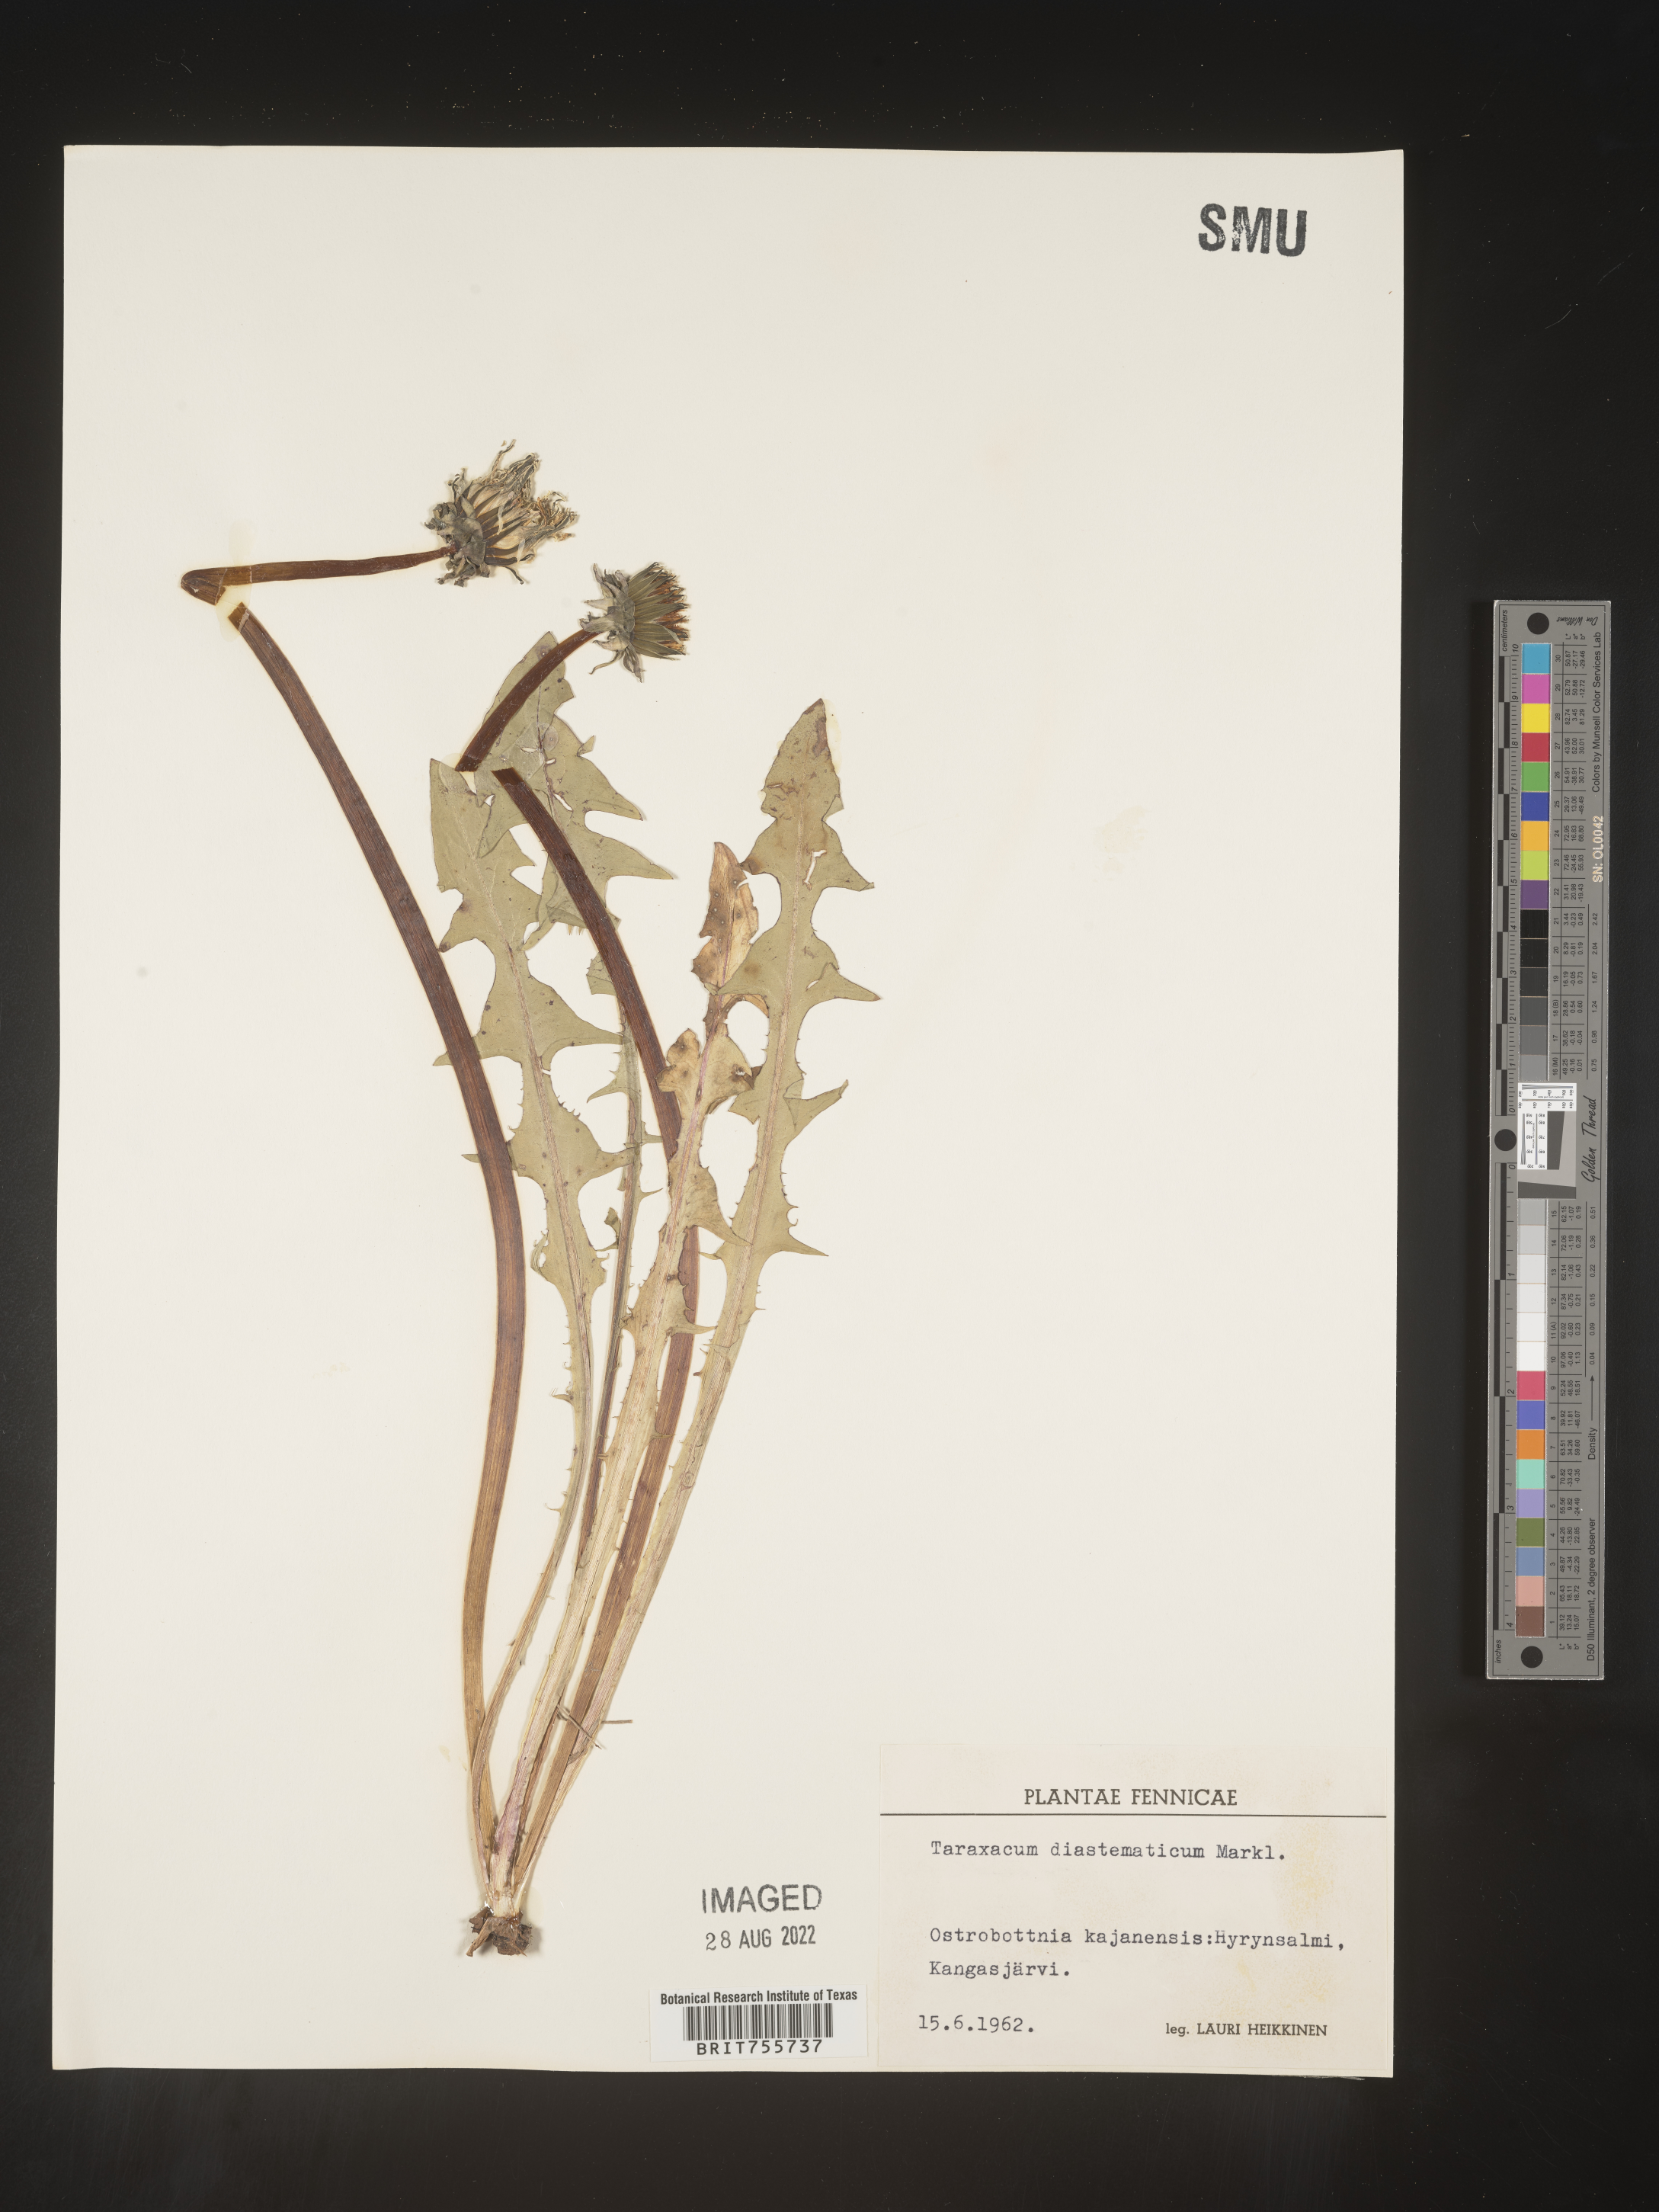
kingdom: Plantae
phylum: Tracheophyta
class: Magnoliopsida
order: Asterales
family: Asteraceae
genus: Taraxacum
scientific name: Taraxacum
